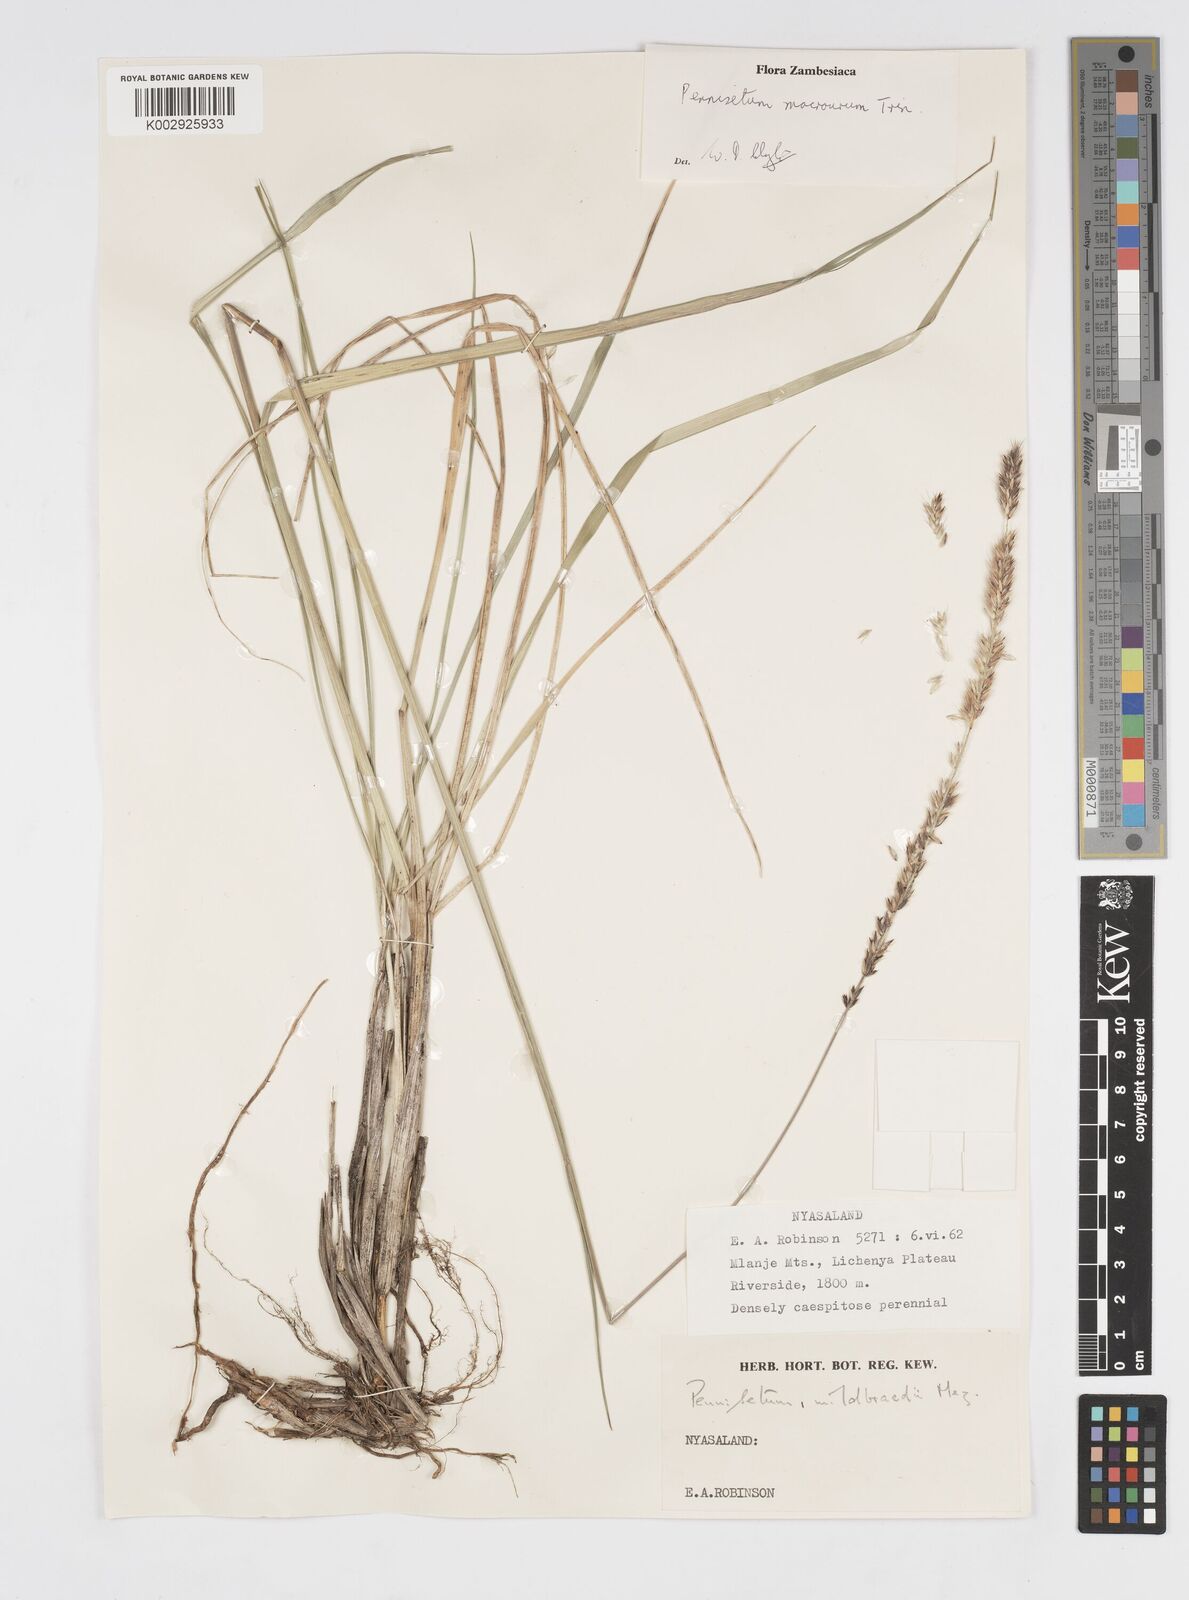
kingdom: Plantae
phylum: Tracheophyta
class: Liliopsida
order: Poales
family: Poaceae
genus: Cenchrus
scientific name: Cenchrus caudatus
